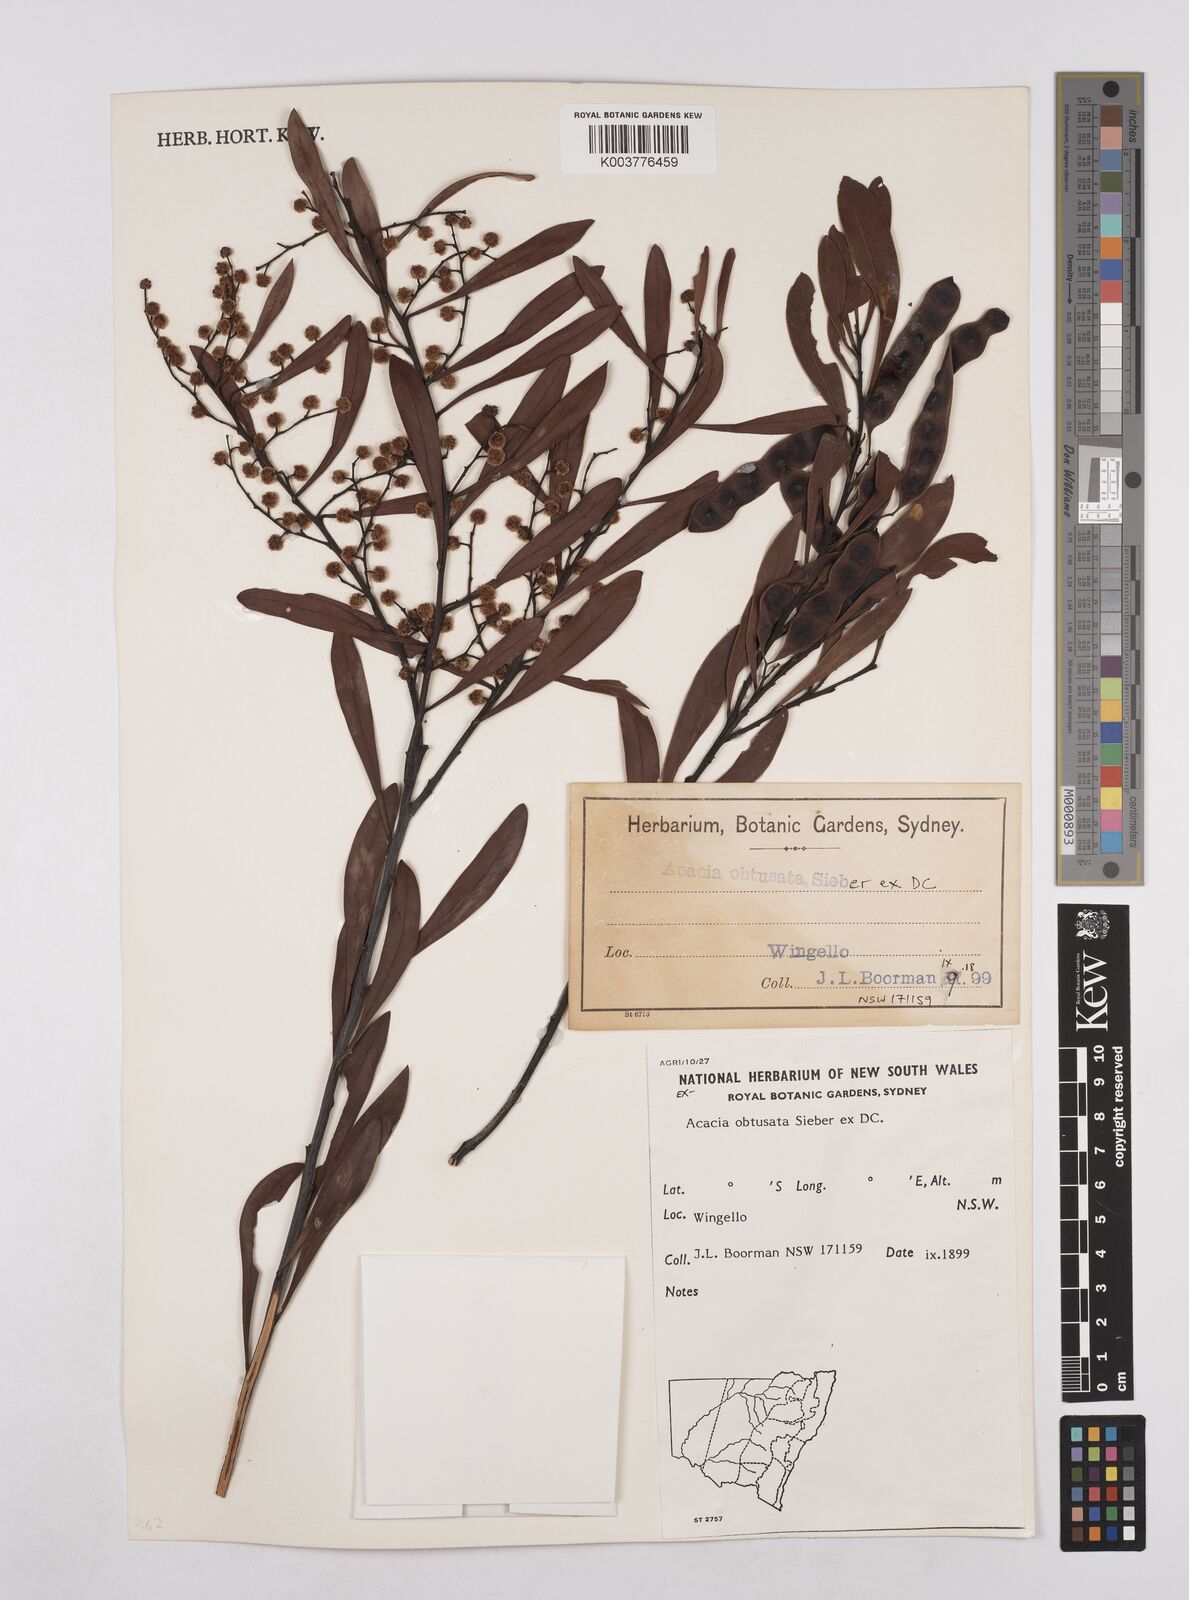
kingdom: Plantae
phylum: Tracheophyta
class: Magnoliopsida
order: Fabales
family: Fabaceae
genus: Acacia
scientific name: Acacia obtusata
